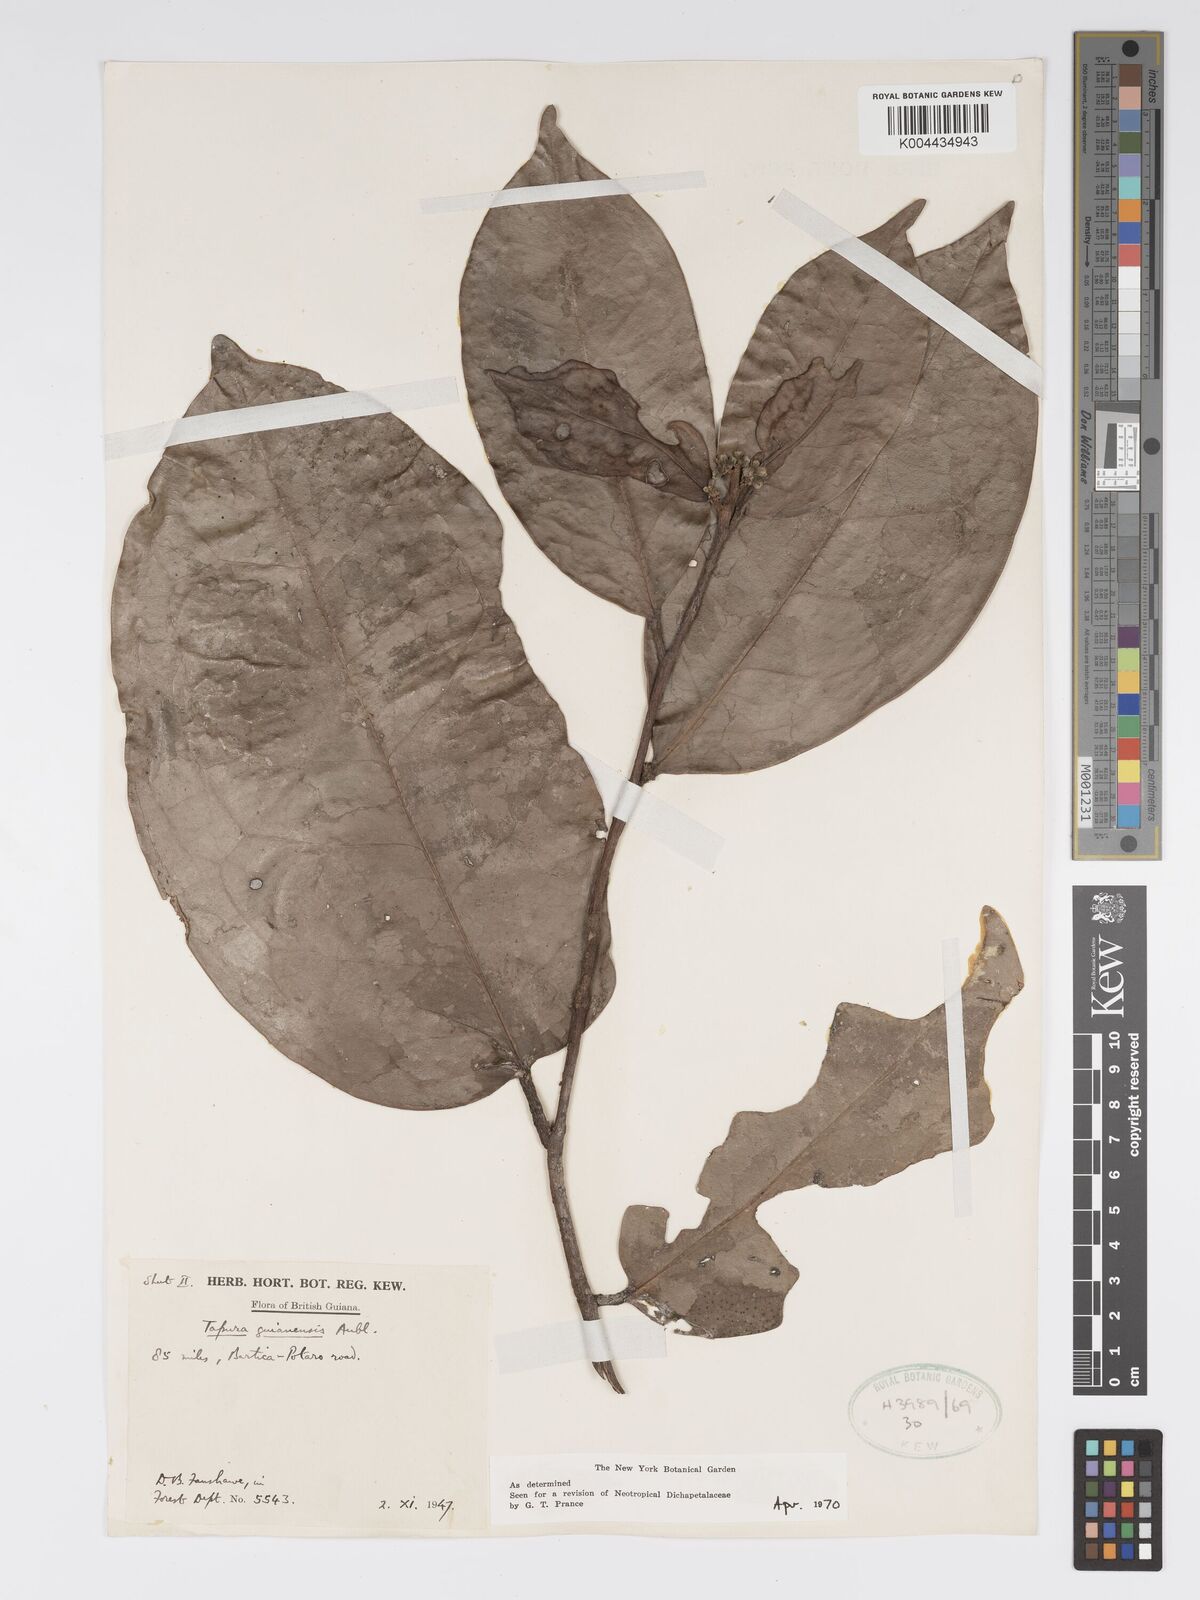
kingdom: Plantae
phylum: Tracheophyta
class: Magnoliopsida
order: Malpighiales
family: Dichapetalaceae
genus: Tapura
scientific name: Tapura guianensis
